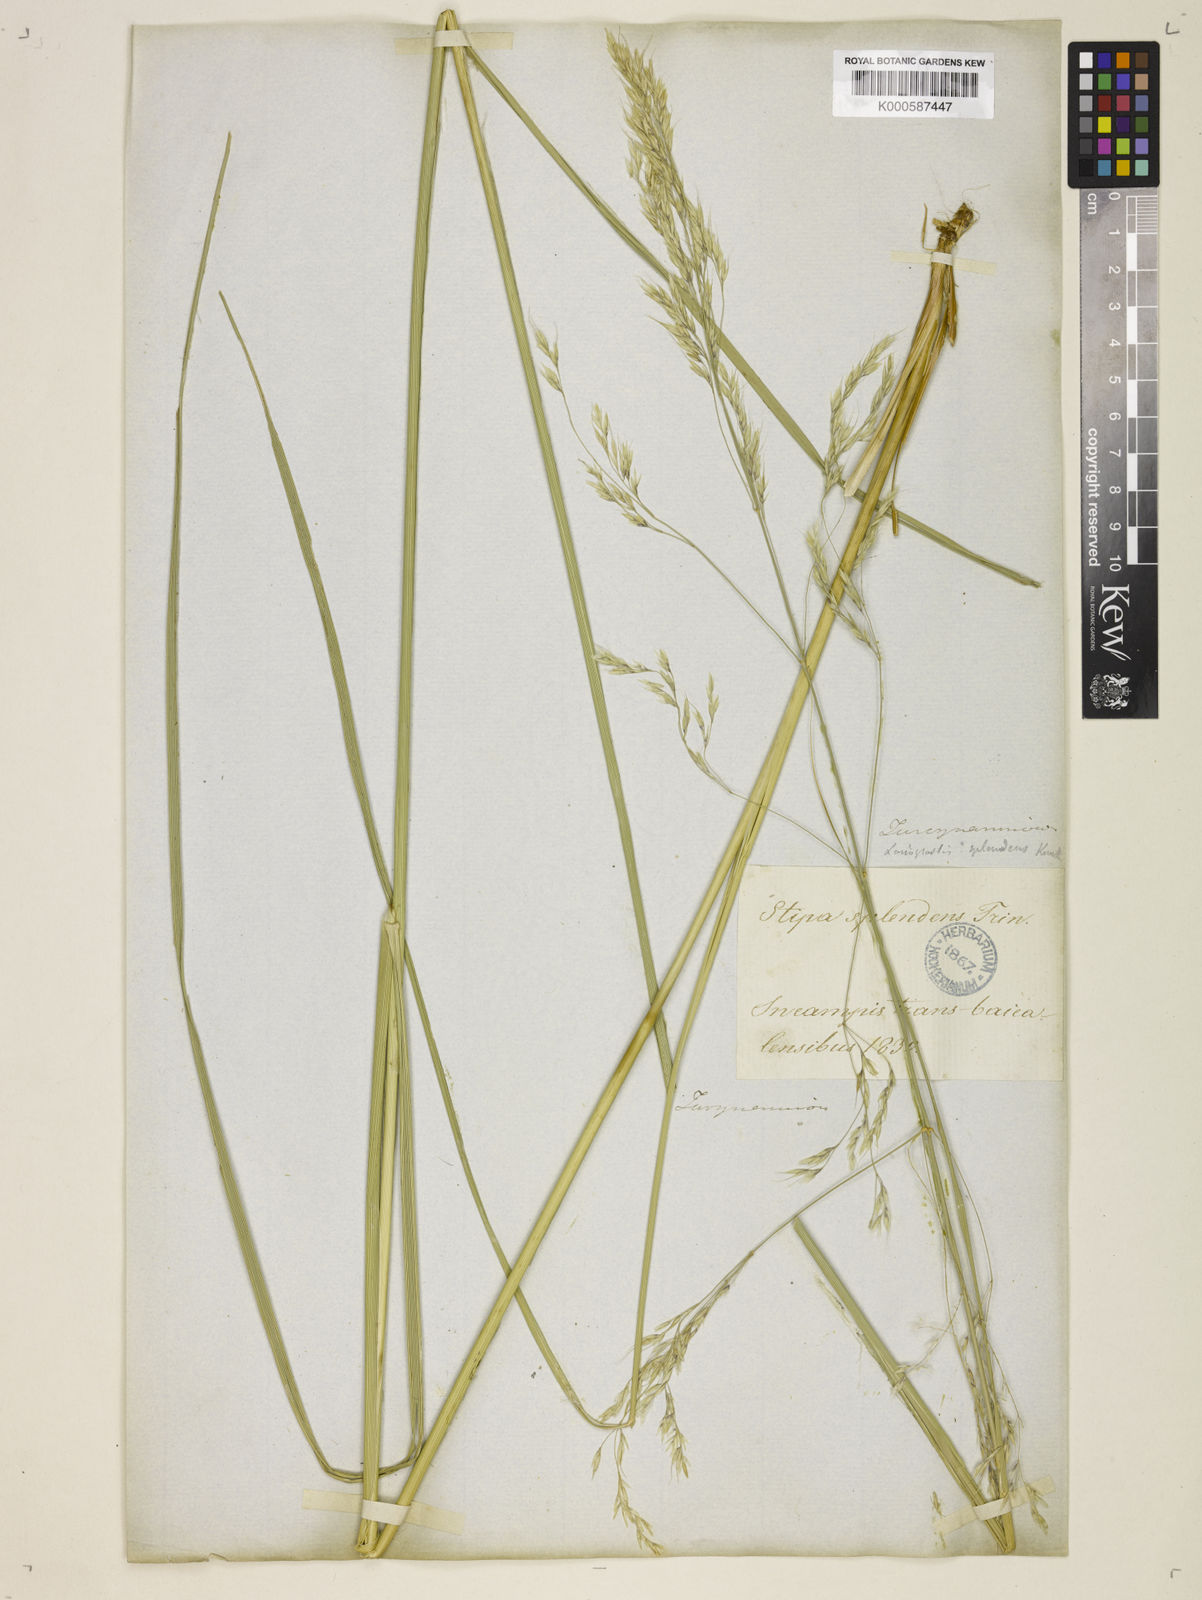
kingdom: Plantae
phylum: Tracheophyta
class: Liliopsida
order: Poales
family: Poaceae
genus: Neotrinia
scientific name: Neotrinia splendens
